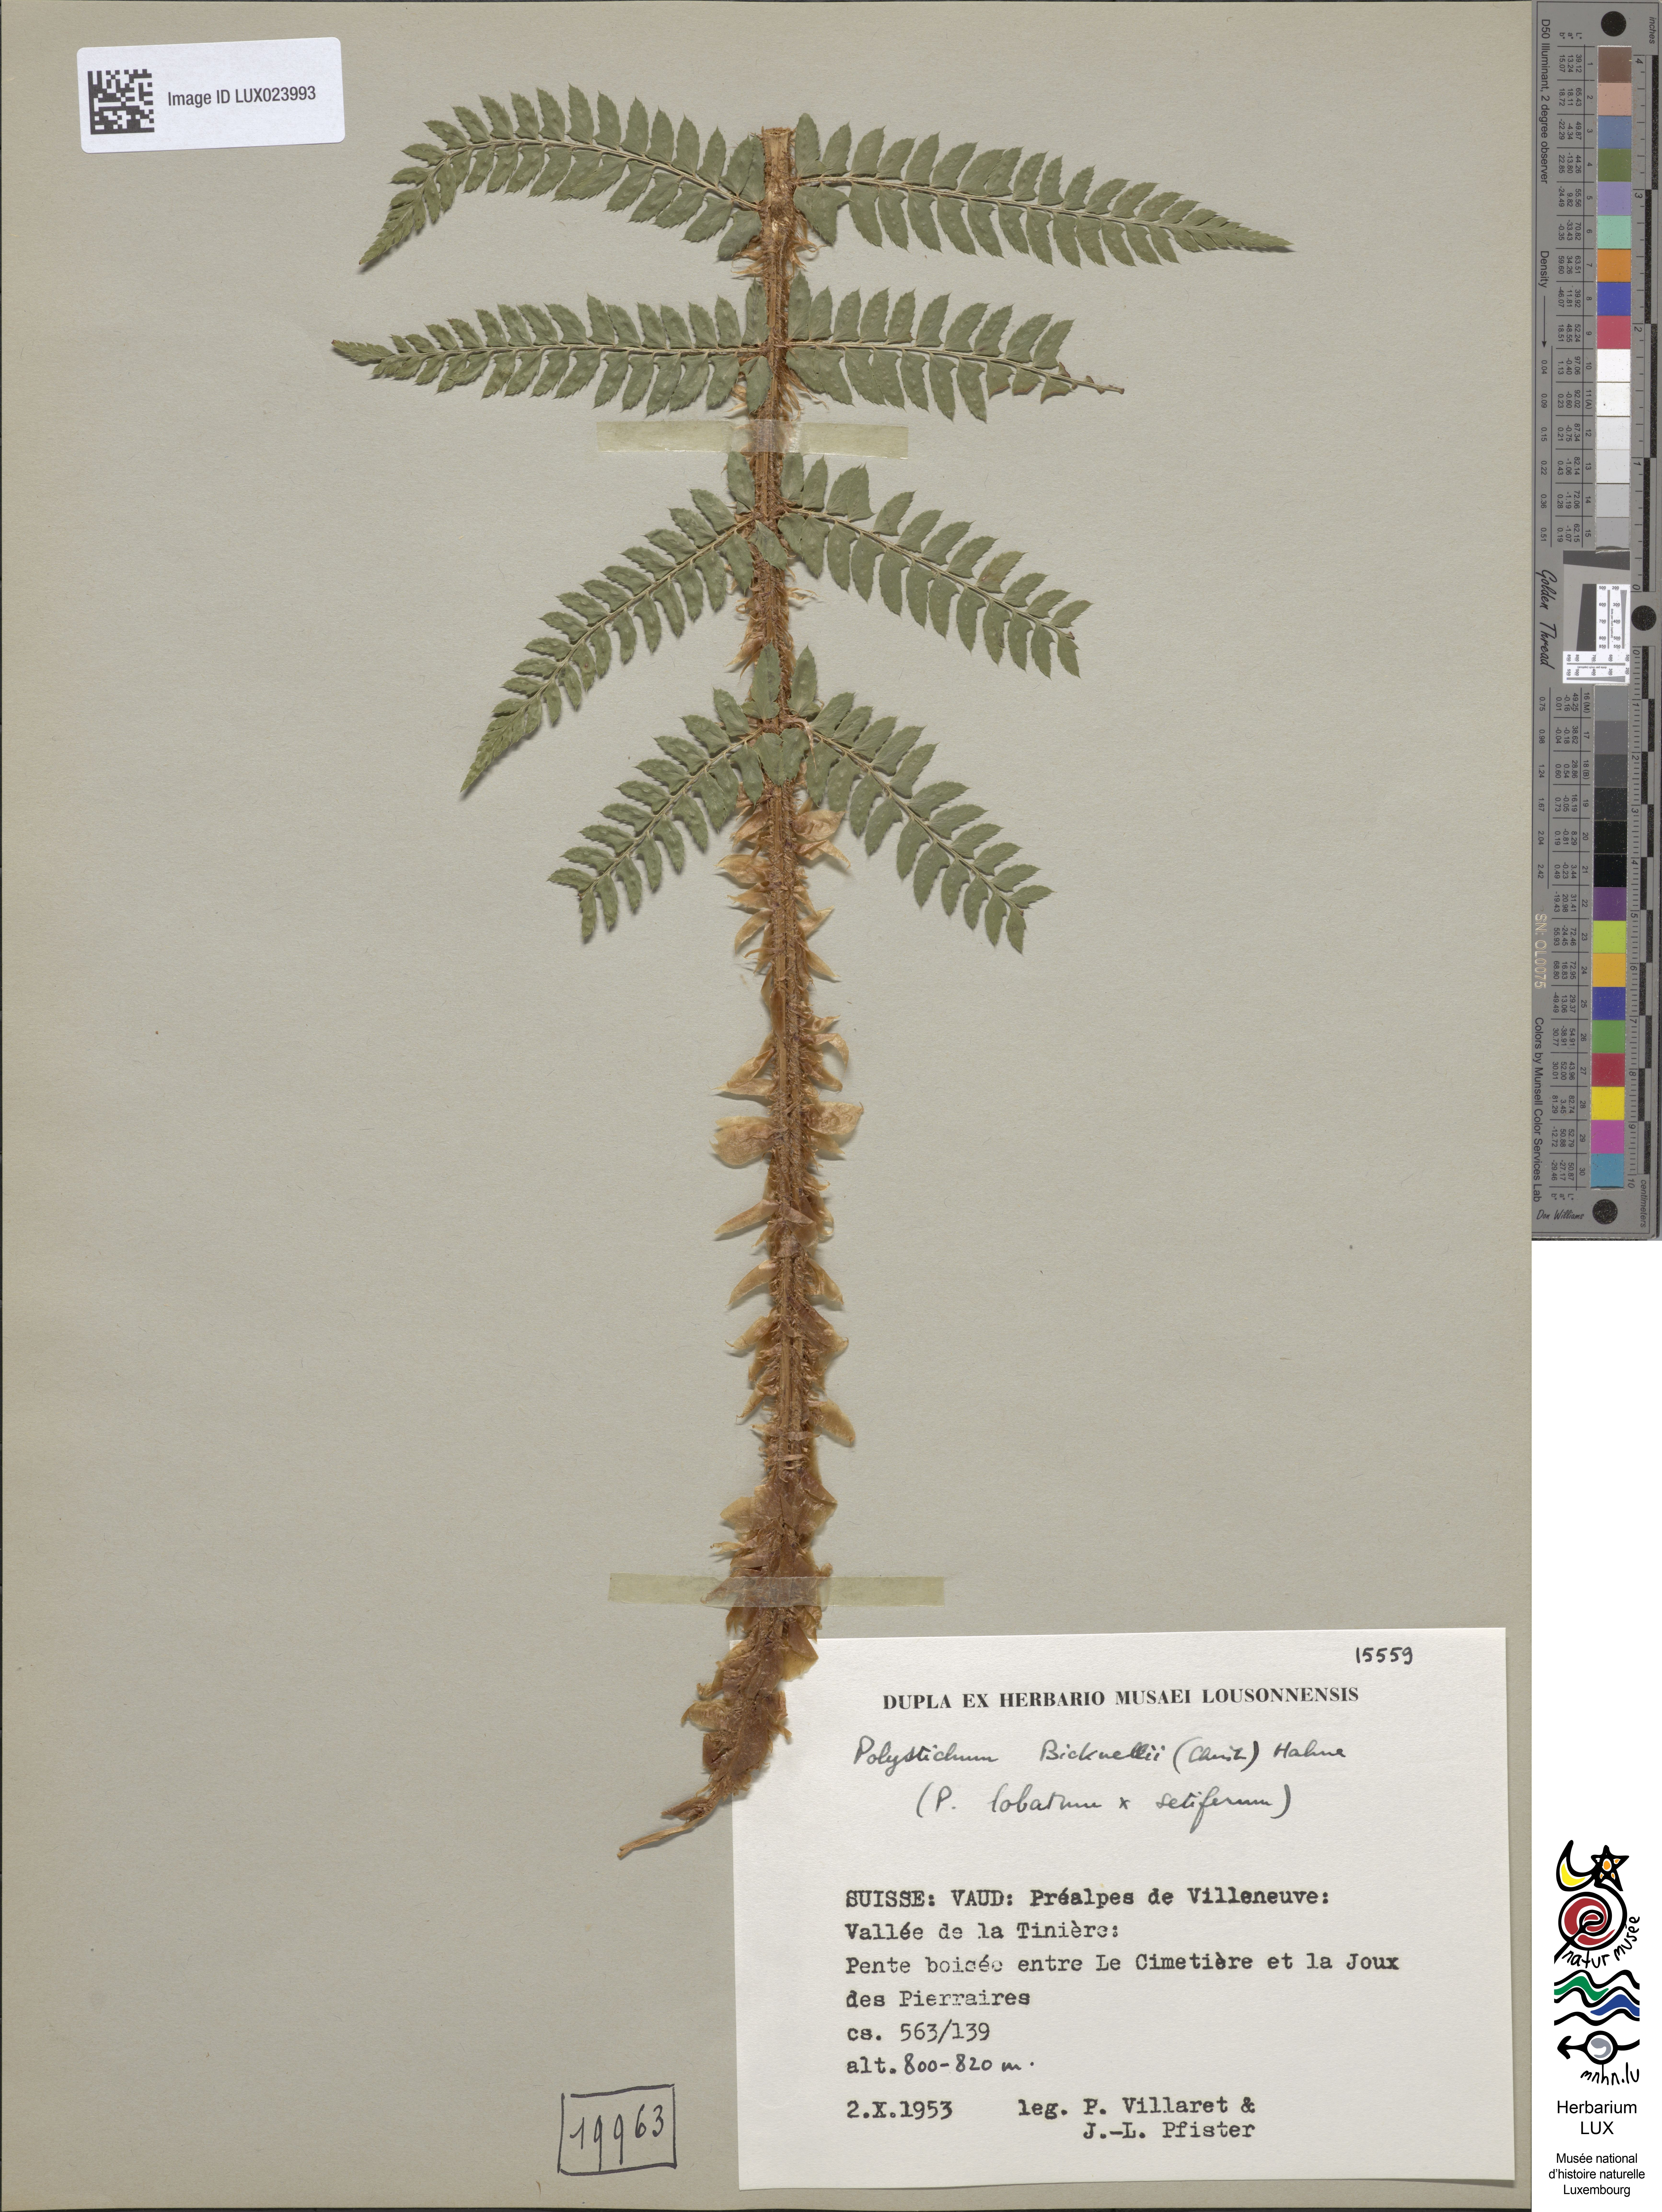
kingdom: Plantae
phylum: Tracheophyta
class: Polypodiopsida
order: Polypodiales
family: Dryopteridaceae
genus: Polystichum
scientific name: Polystichum
